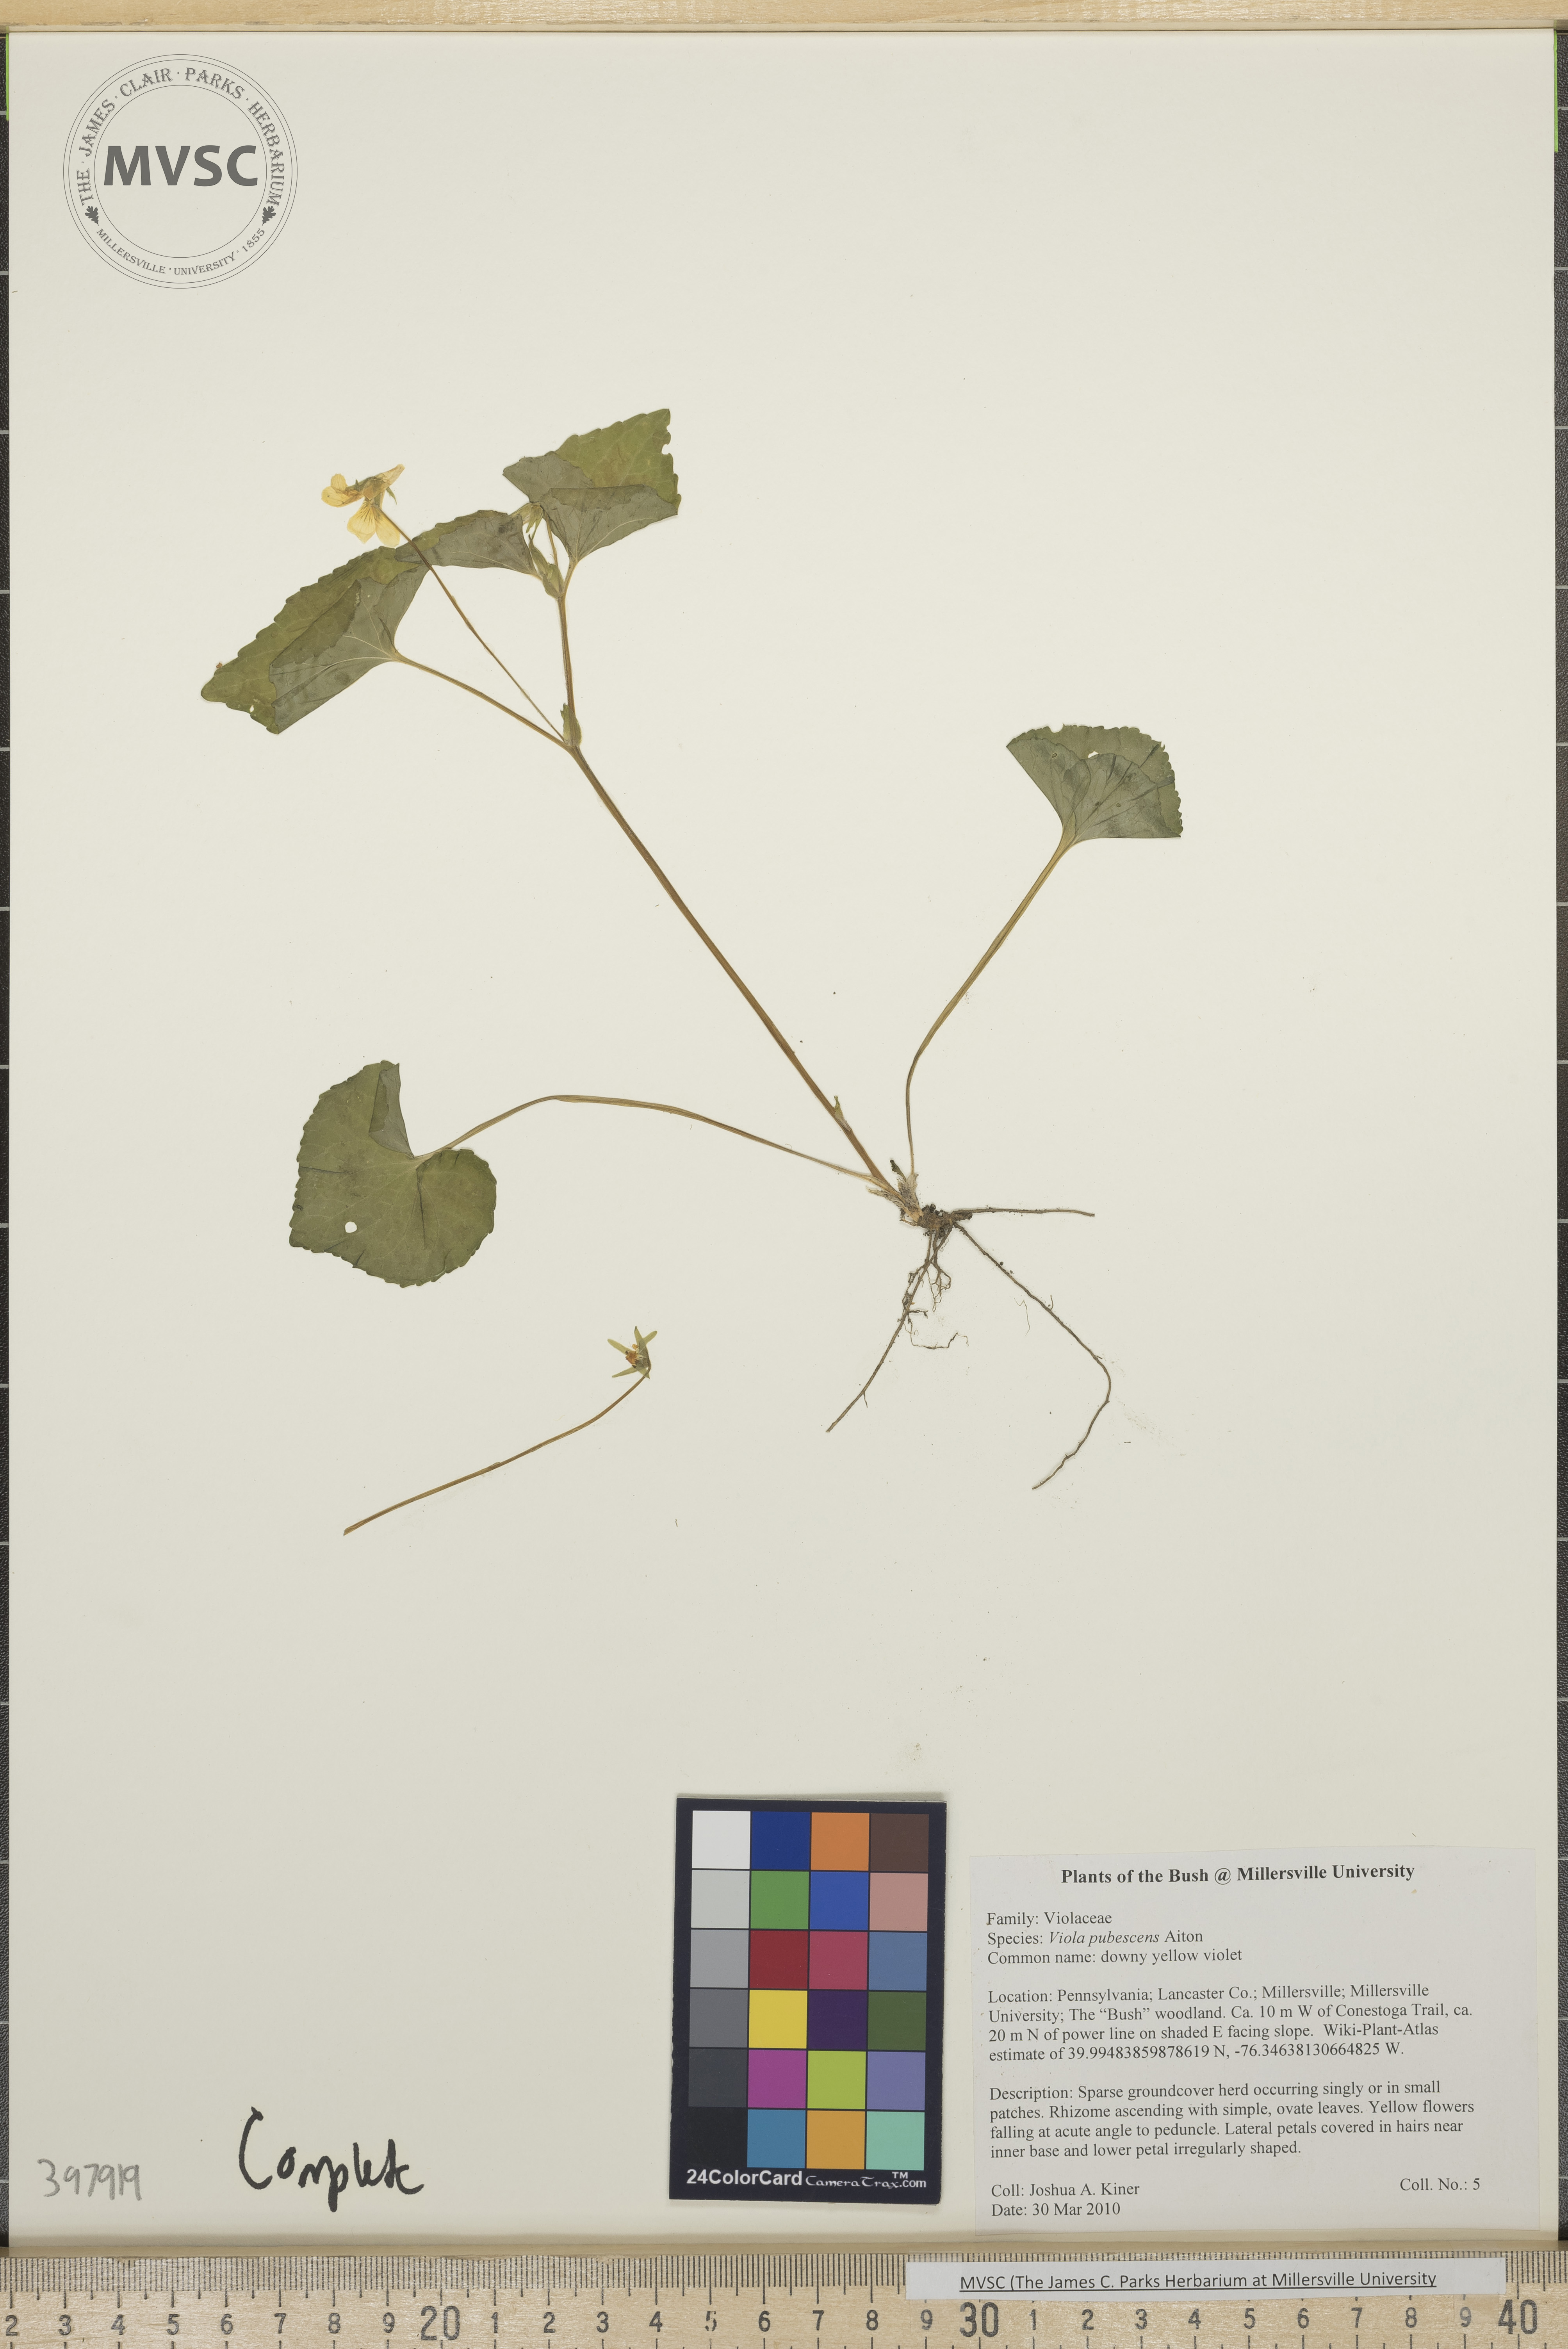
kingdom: Plantae
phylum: Tracheophyta
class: Magnoliopsida
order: Malpighiales
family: Violaceae
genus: Viola
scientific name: Viola pubescens
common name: downy yellow violet
